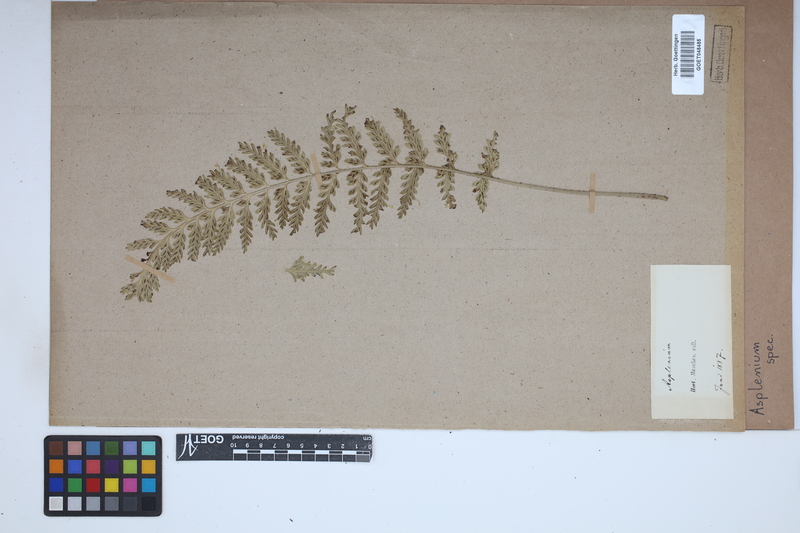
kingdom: Plantae
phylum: Tracheophyta
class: Polypodiopsida
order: Polypodiales
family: Aspleniaceae
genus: Asplenium
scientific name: Asplenium
